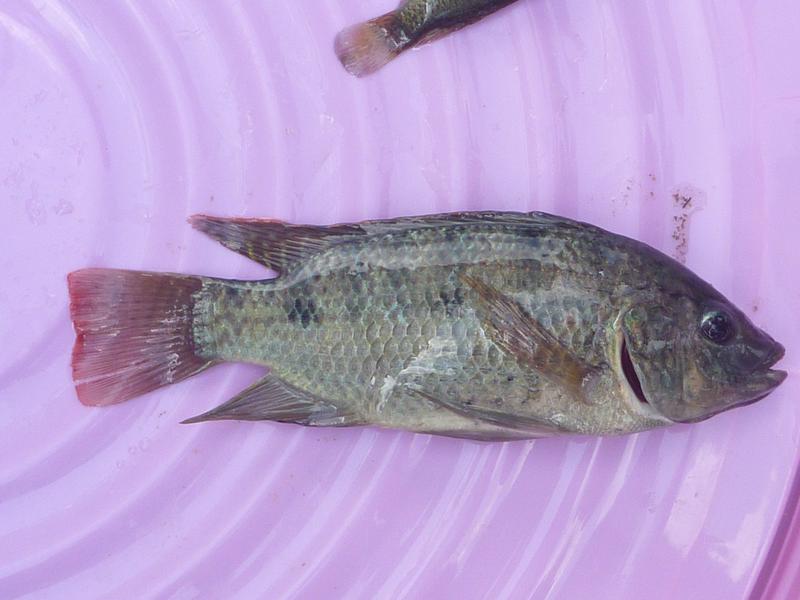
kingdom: Animalia
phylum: Chordata
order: Perciformes
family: Cichlidae
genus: Oreochromis
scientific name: Oreochromis shiranus
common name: Chilwa tilapia
